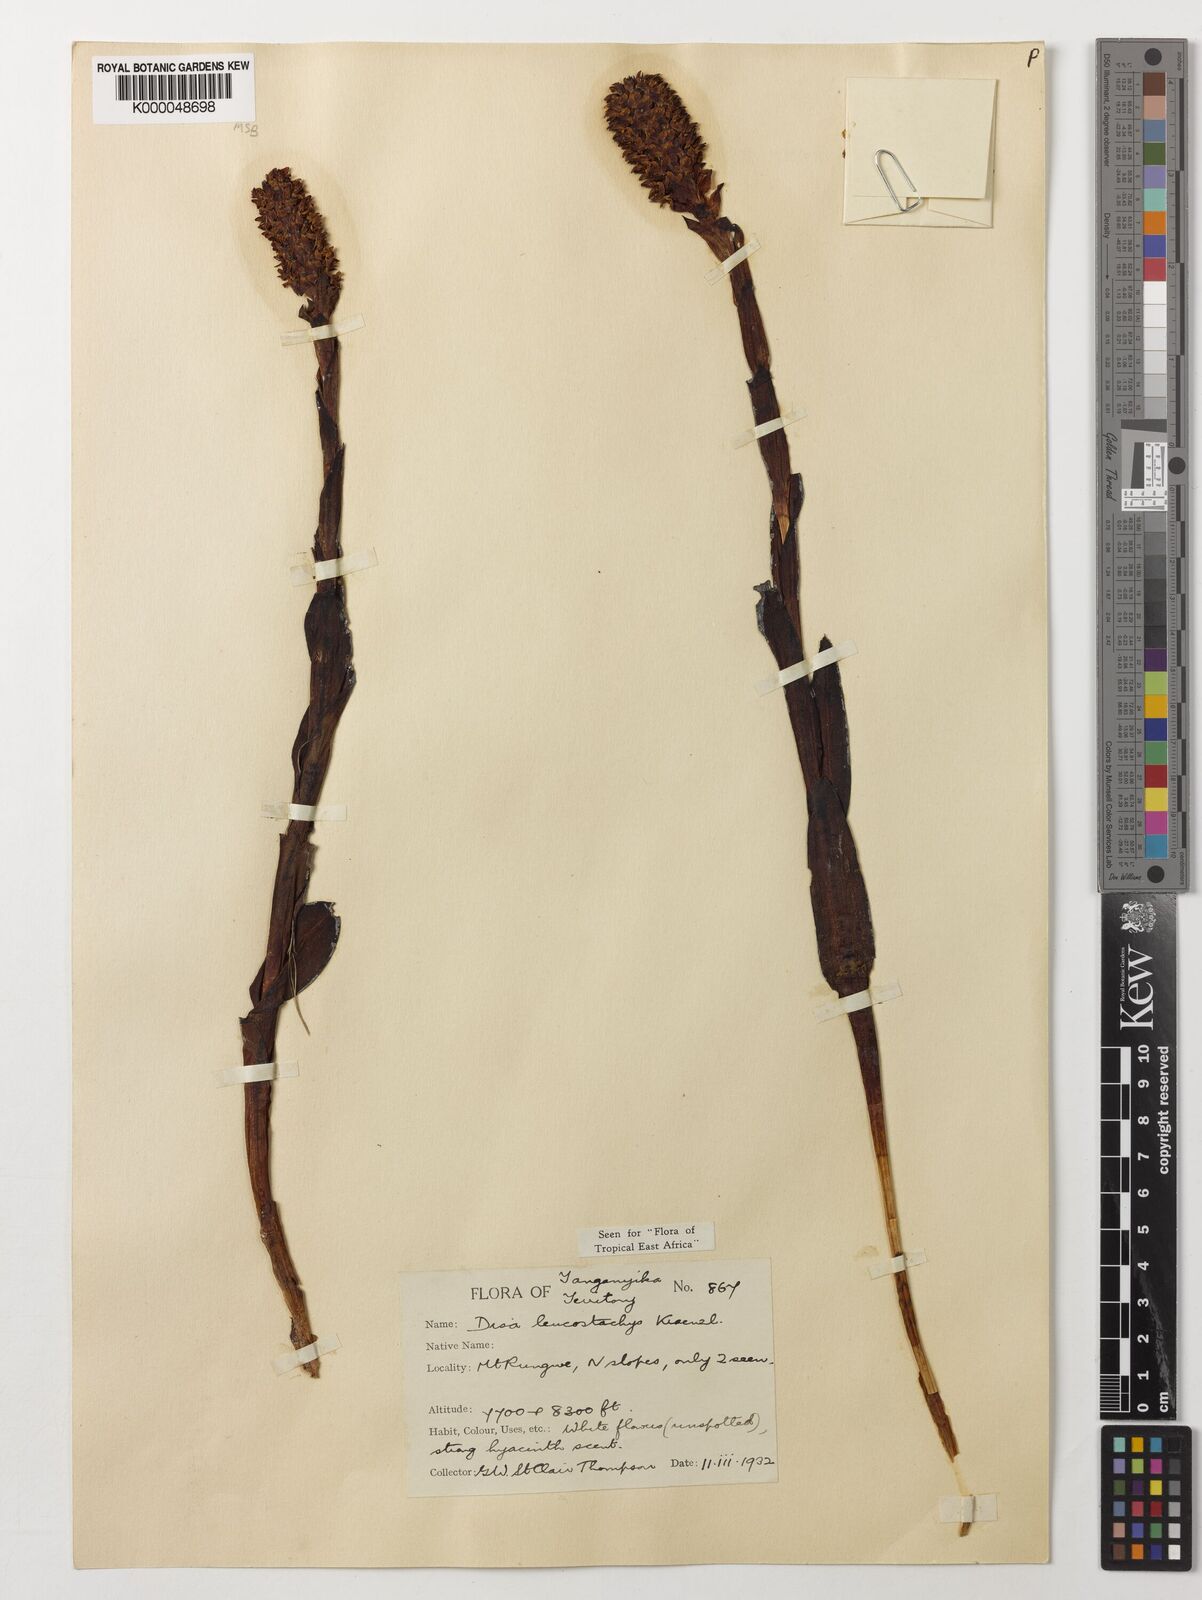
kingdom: Plantae
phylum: Tracheophyta
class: Liliopsida
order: Asparagales
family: Orchidaceae
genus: Disa
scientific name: Disa fragrans
